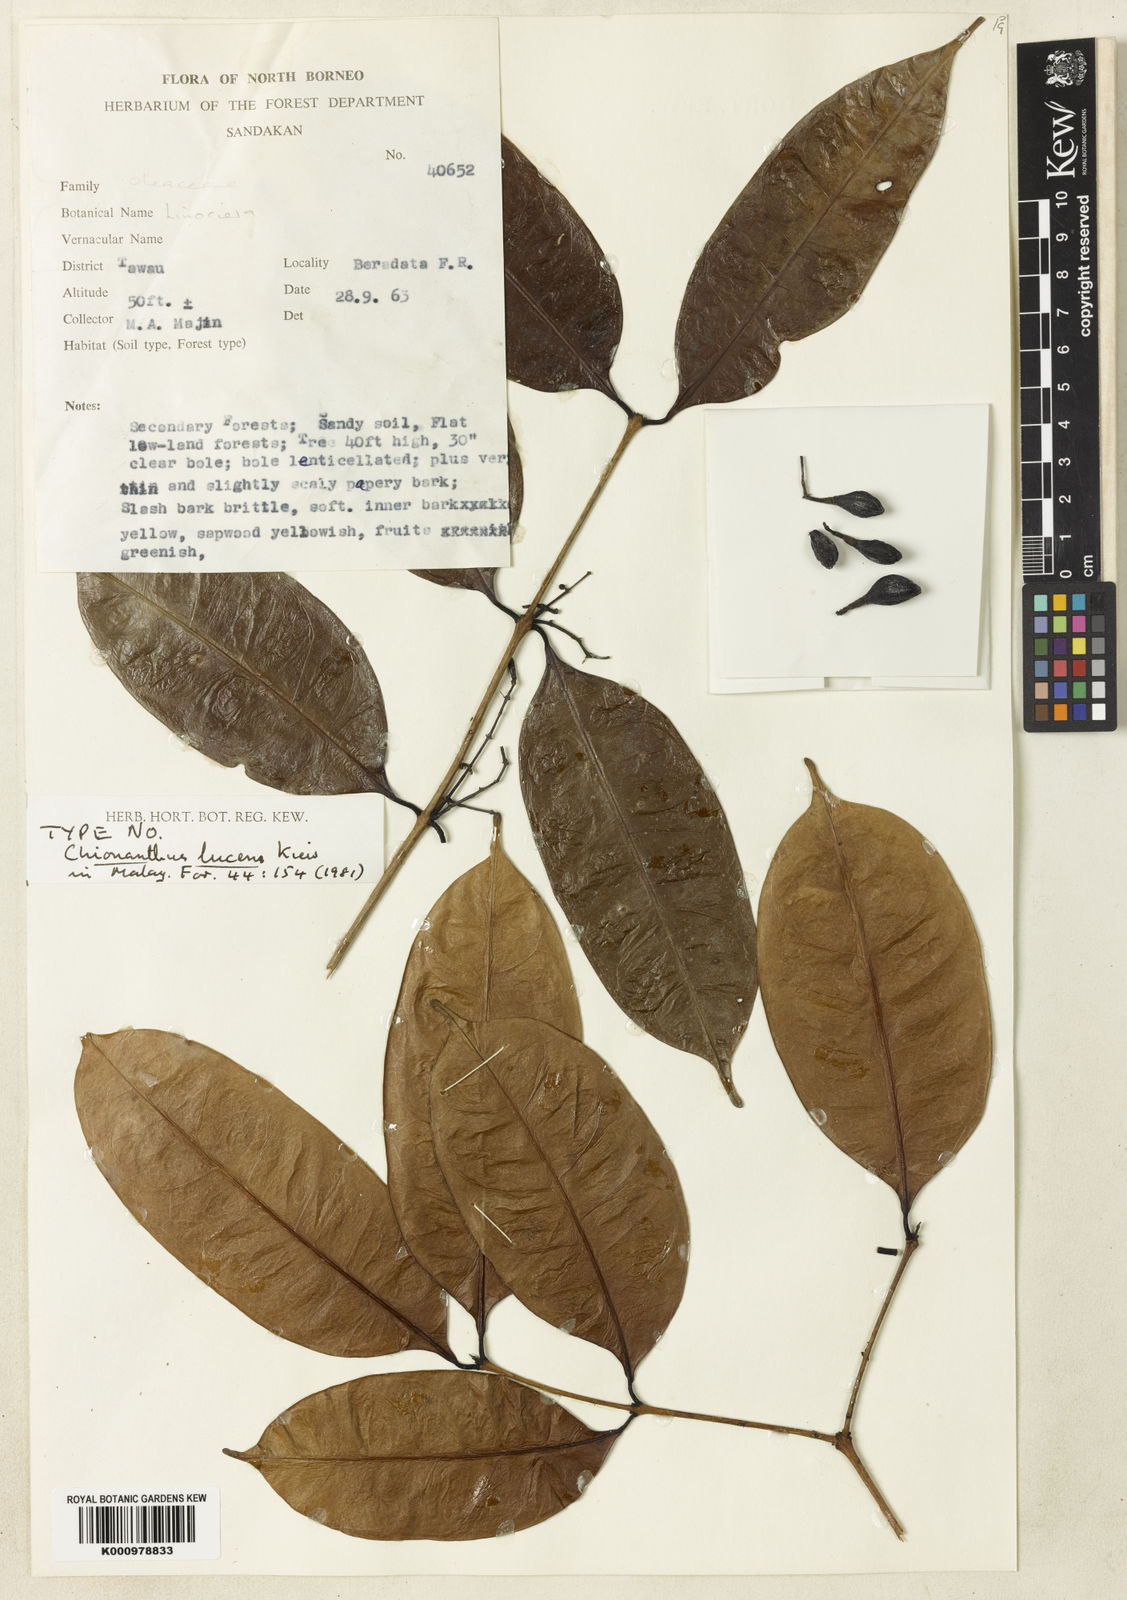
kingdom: Plantae
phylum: Tracheophyta
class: Magnoliopsida
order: Lamiales
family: Oleaceae
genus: Chionanthus
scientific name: Chionanthus lucens
